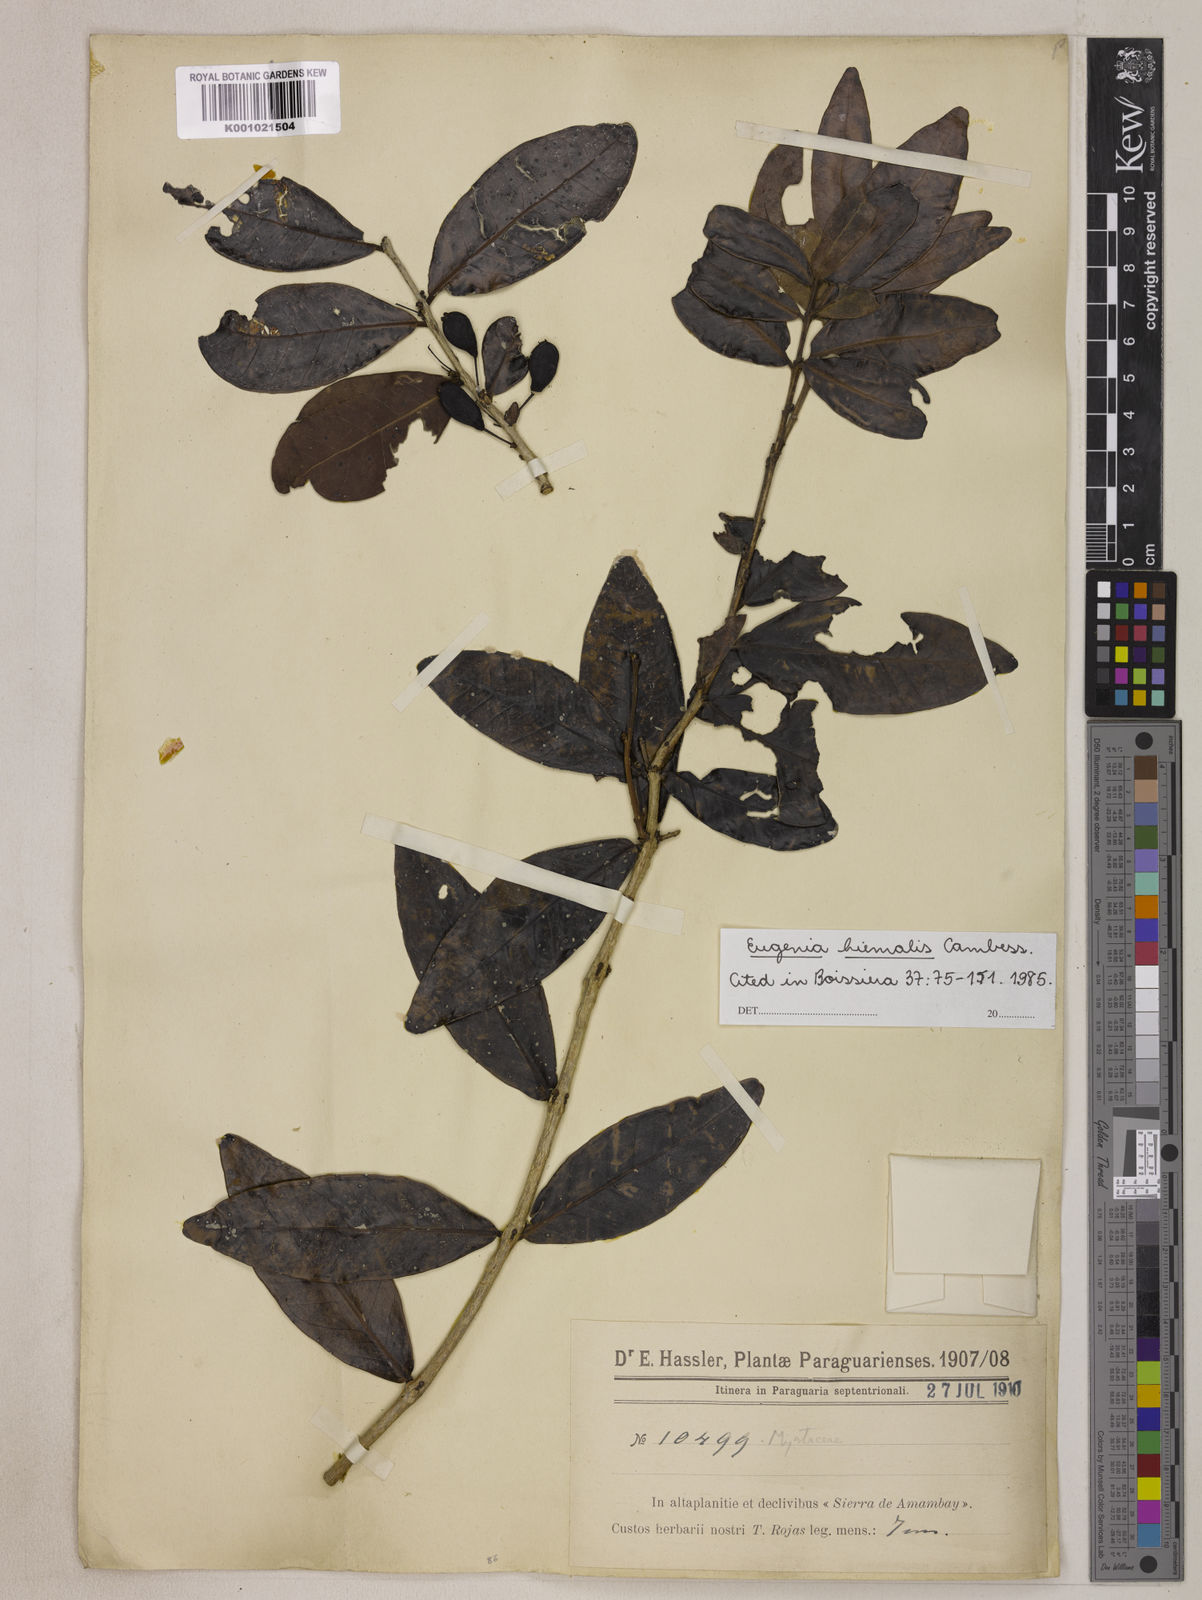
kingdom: Plantae
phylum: Tracheophyta
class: Magnoliopsida
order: Myrtales
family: Myrtaceae
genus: Eugenia
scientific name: Eugenia hiemalis
